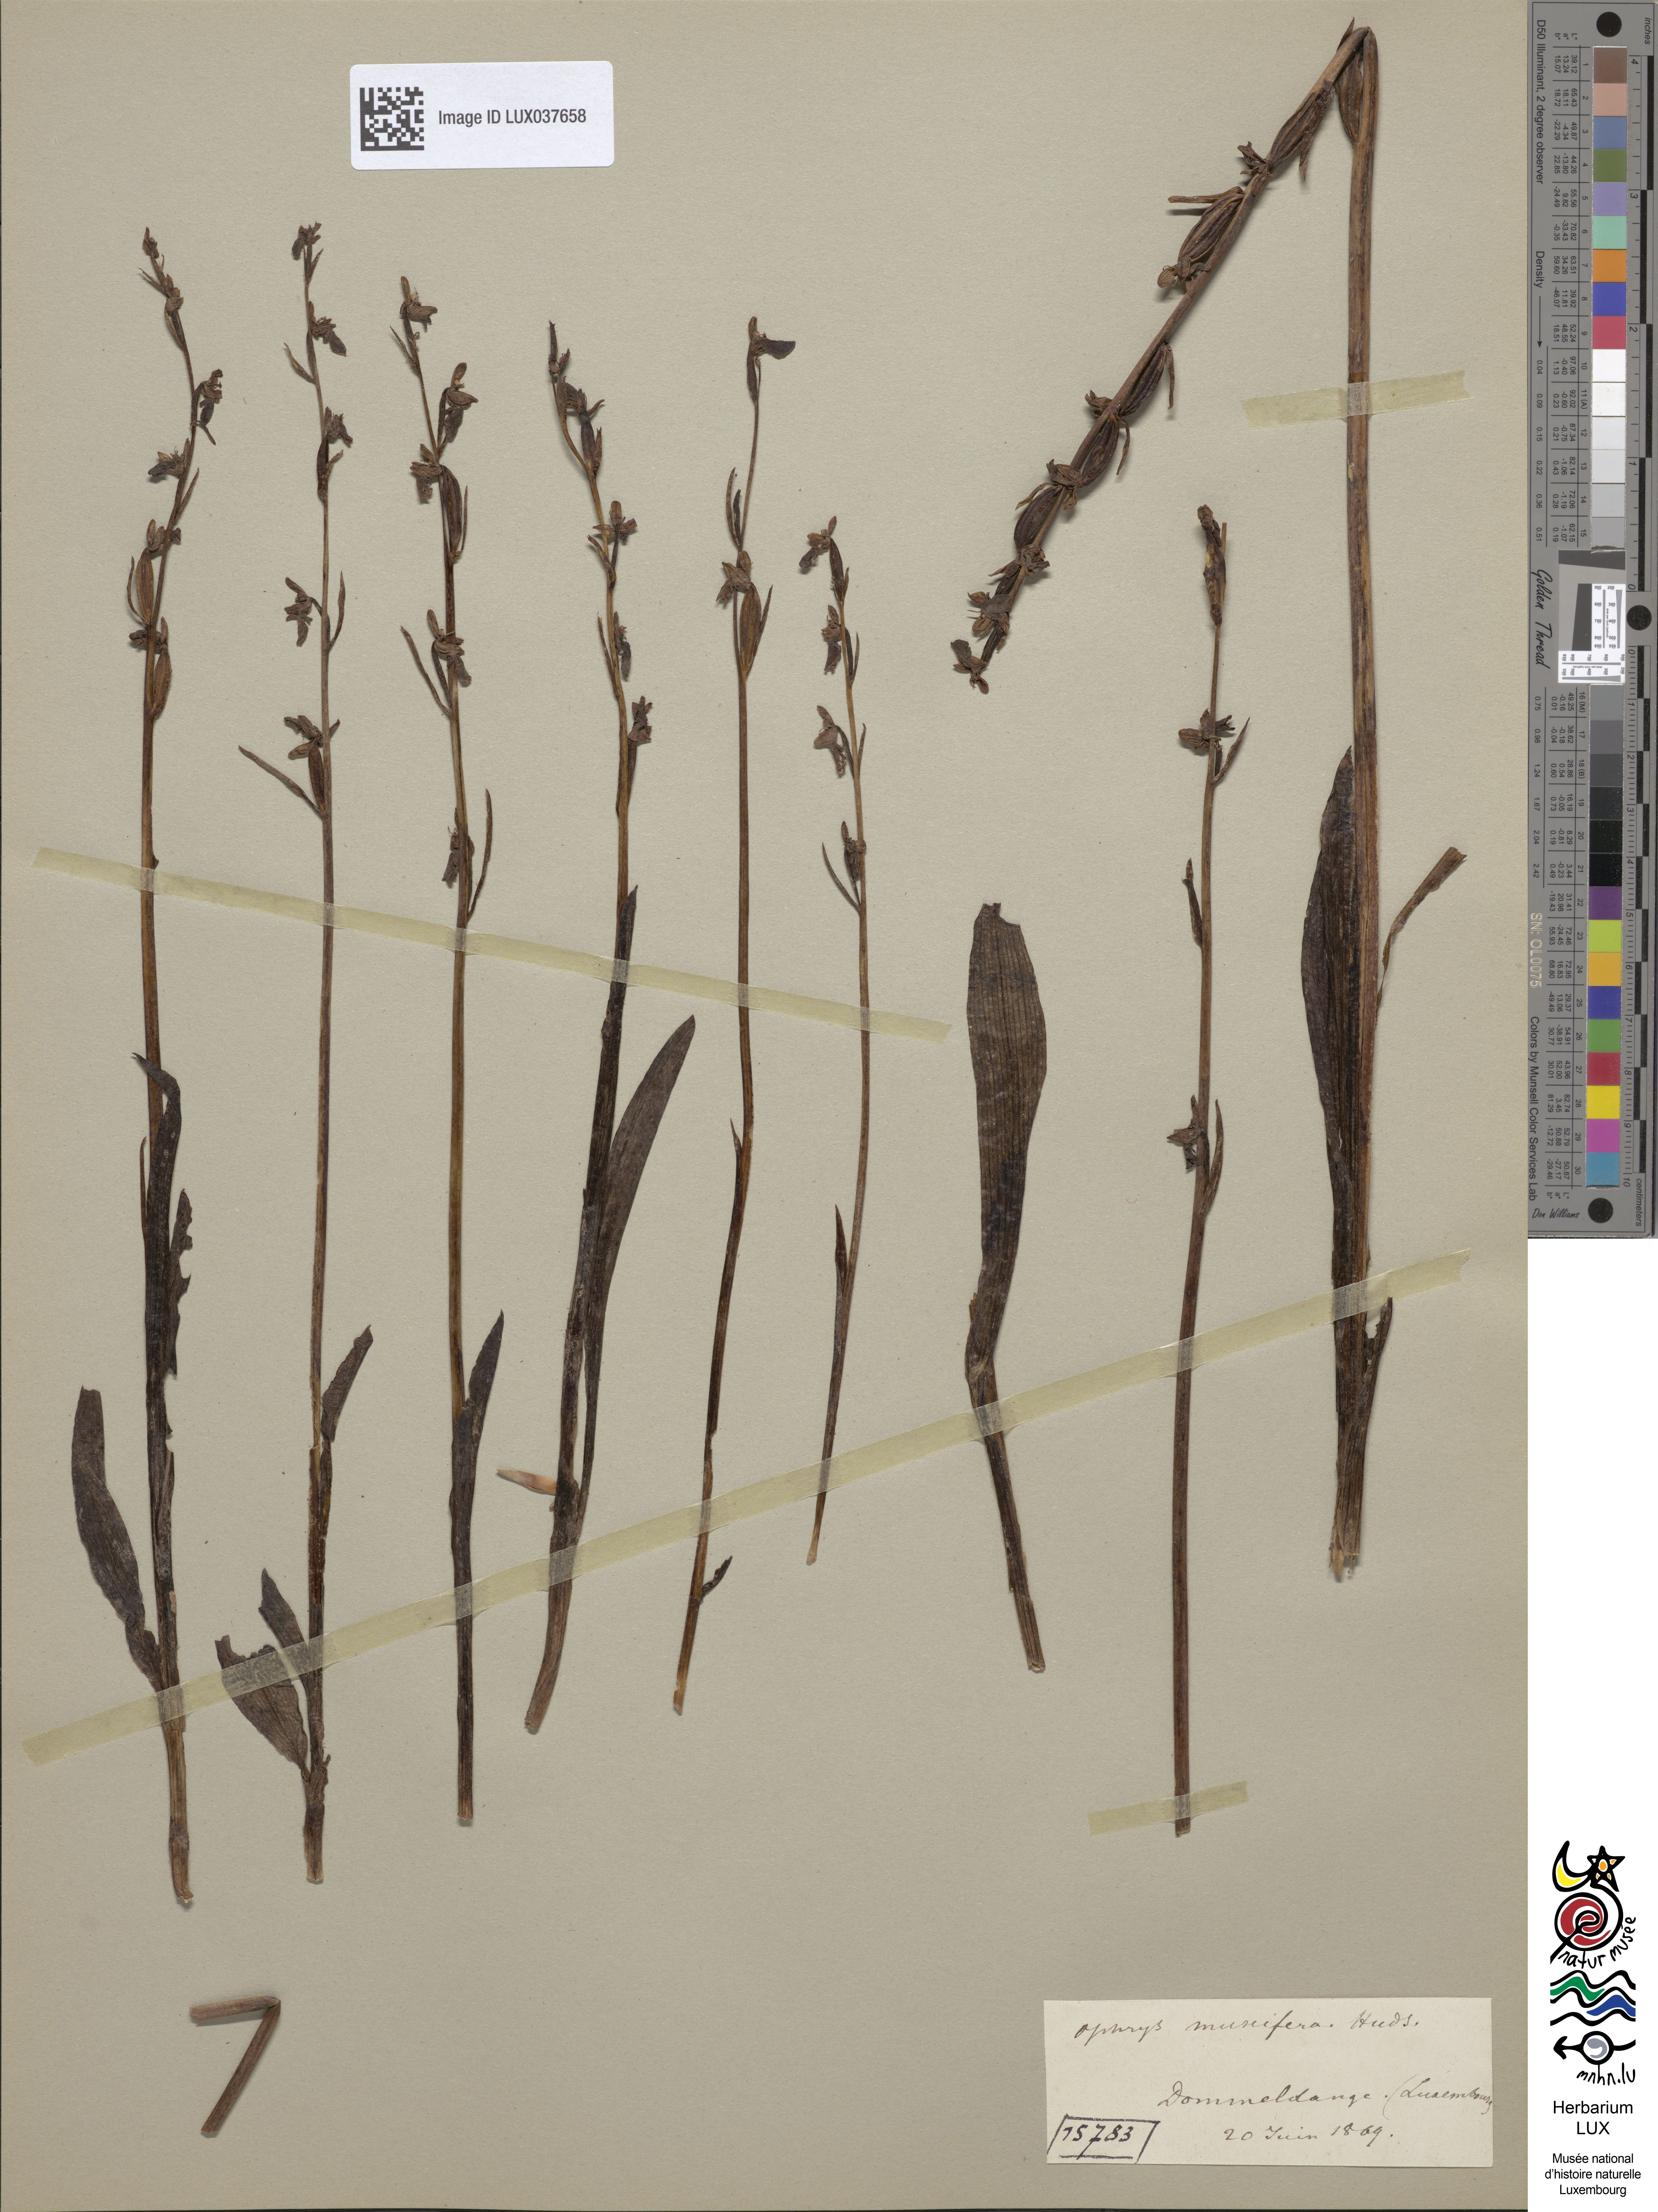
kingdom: Plantae
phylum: Tracheophyta
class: Liliopsida
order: Asparagales
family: Orchidaceae
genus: Ophrys
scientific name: Ophrys insectifera
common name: Fly orchid
